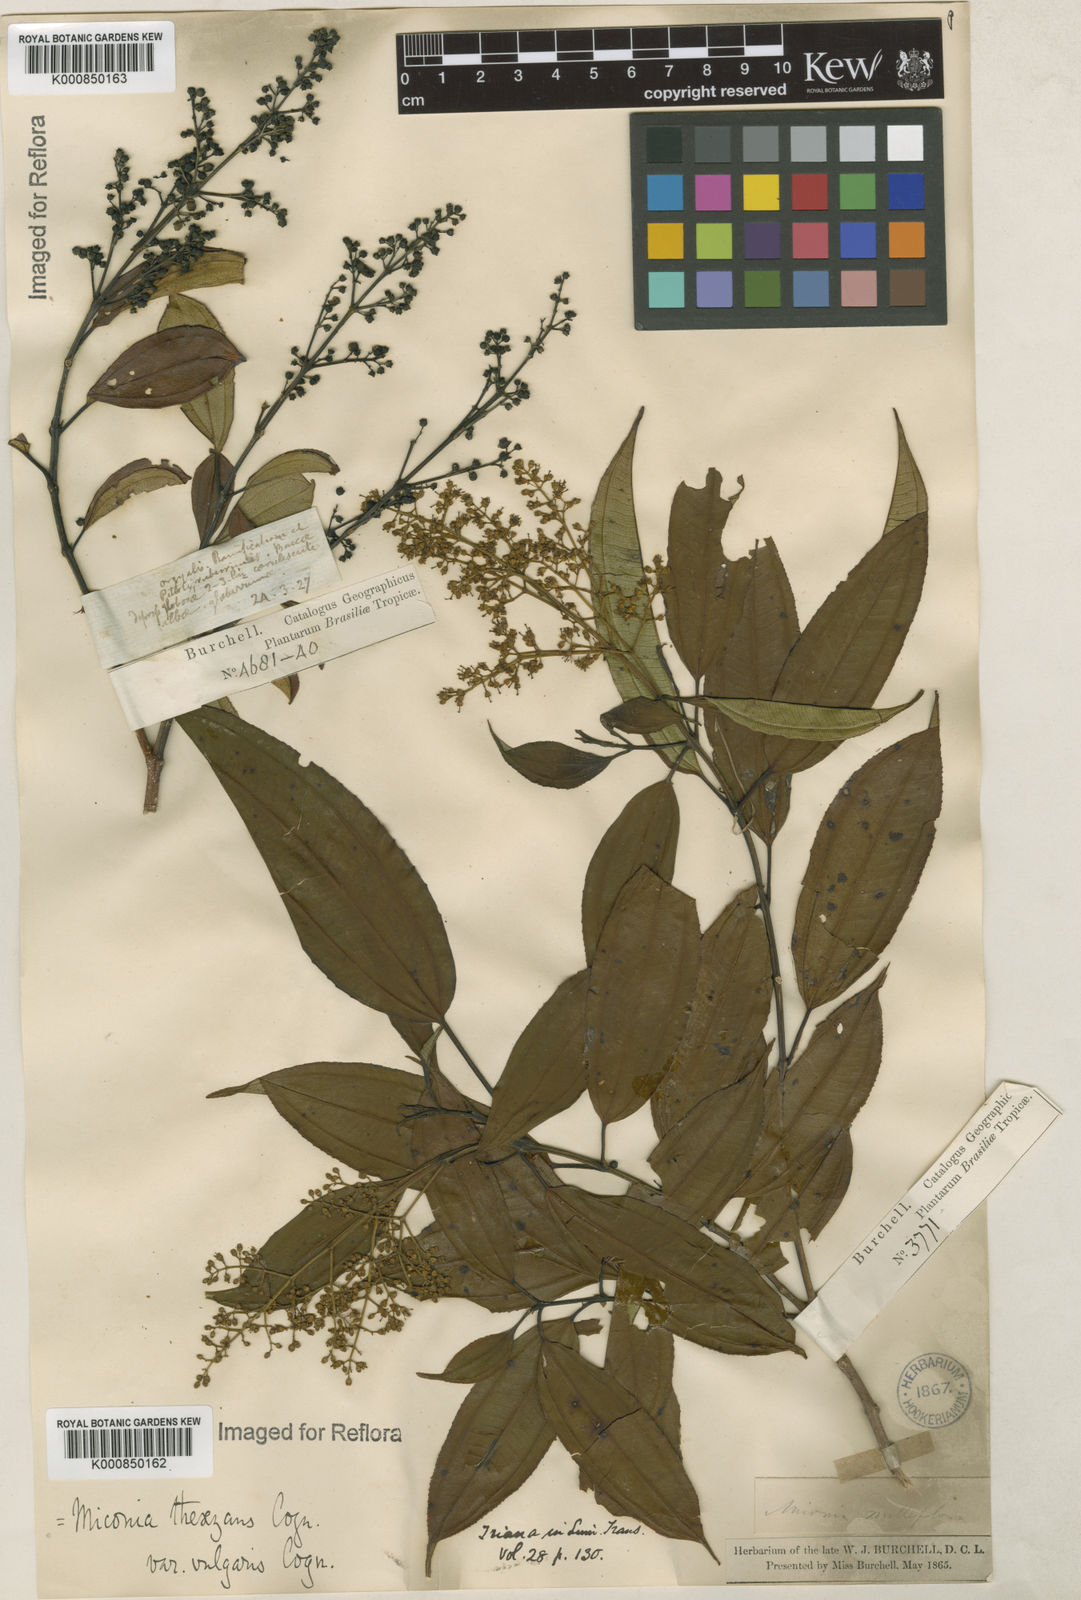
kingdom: Plantae
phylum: Tracheophyta
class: Magnoliopsida
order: Myrtales
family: Melastomataceae
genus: Miconia
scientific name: Miconia
